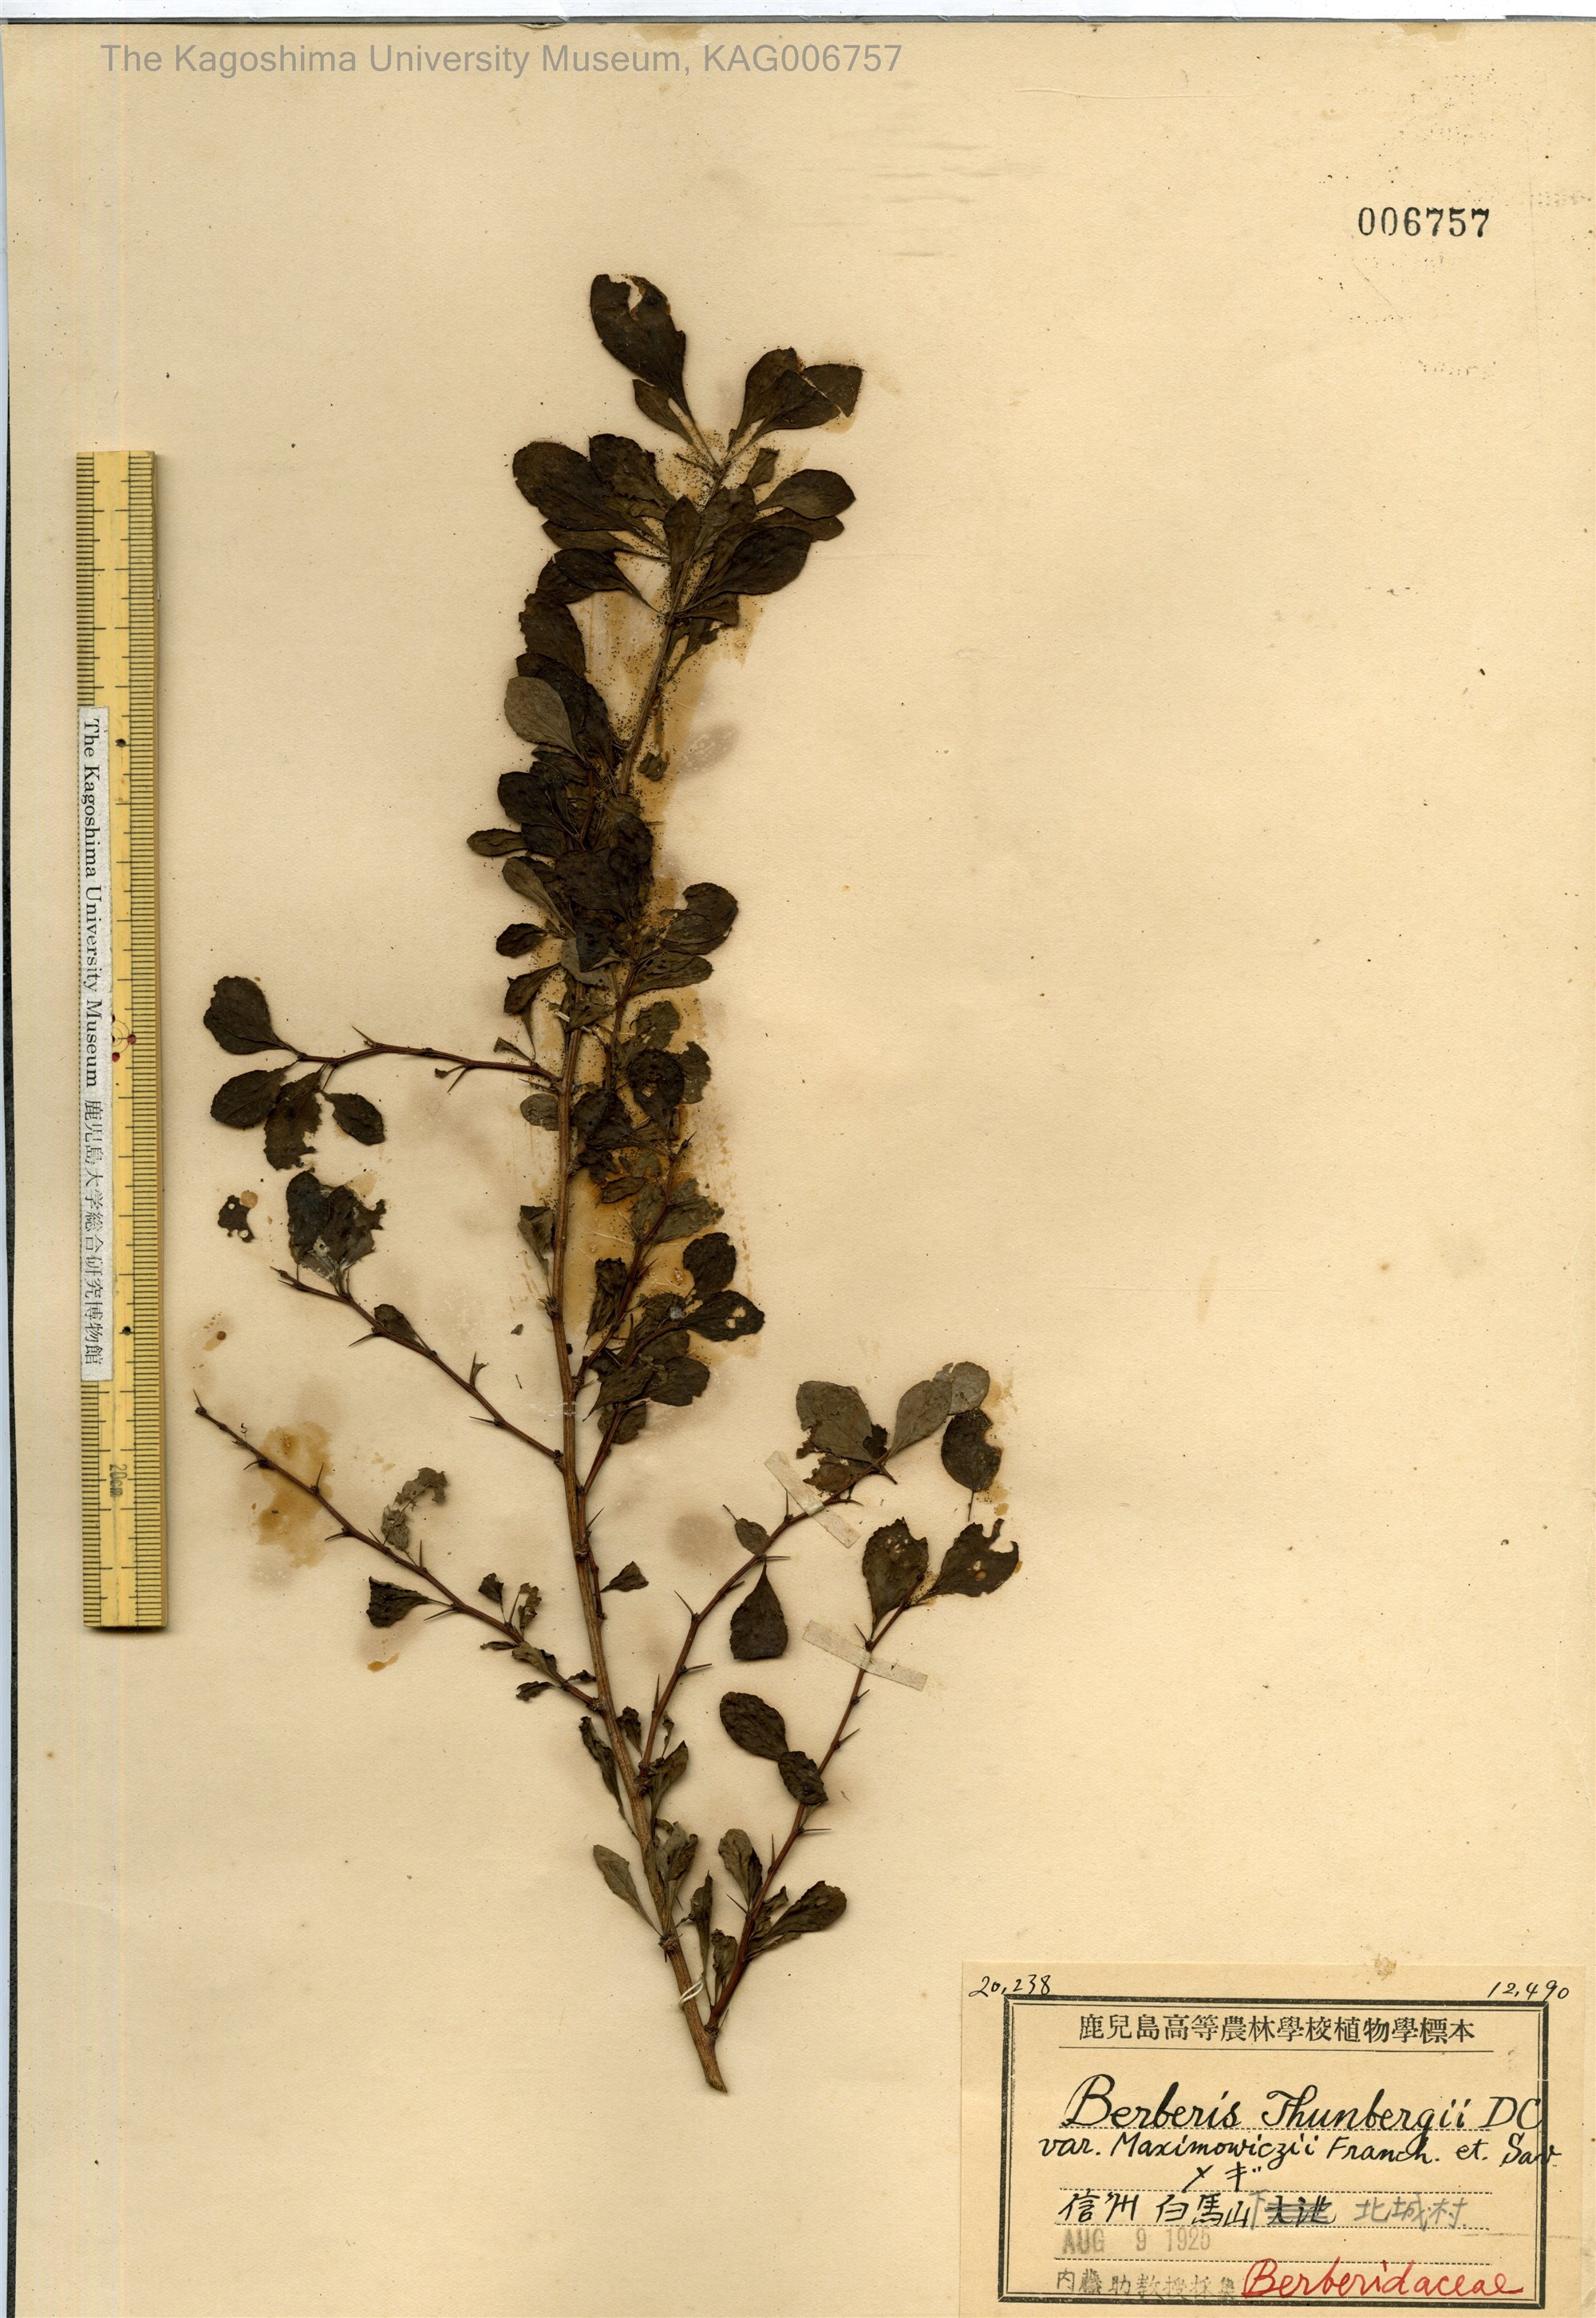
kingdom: Plantae
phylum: Tracheophyta
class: Magnoliopsida
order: Ranunculales
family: Berberidaceae
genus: Berberis
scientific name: Berberis thunbergii
